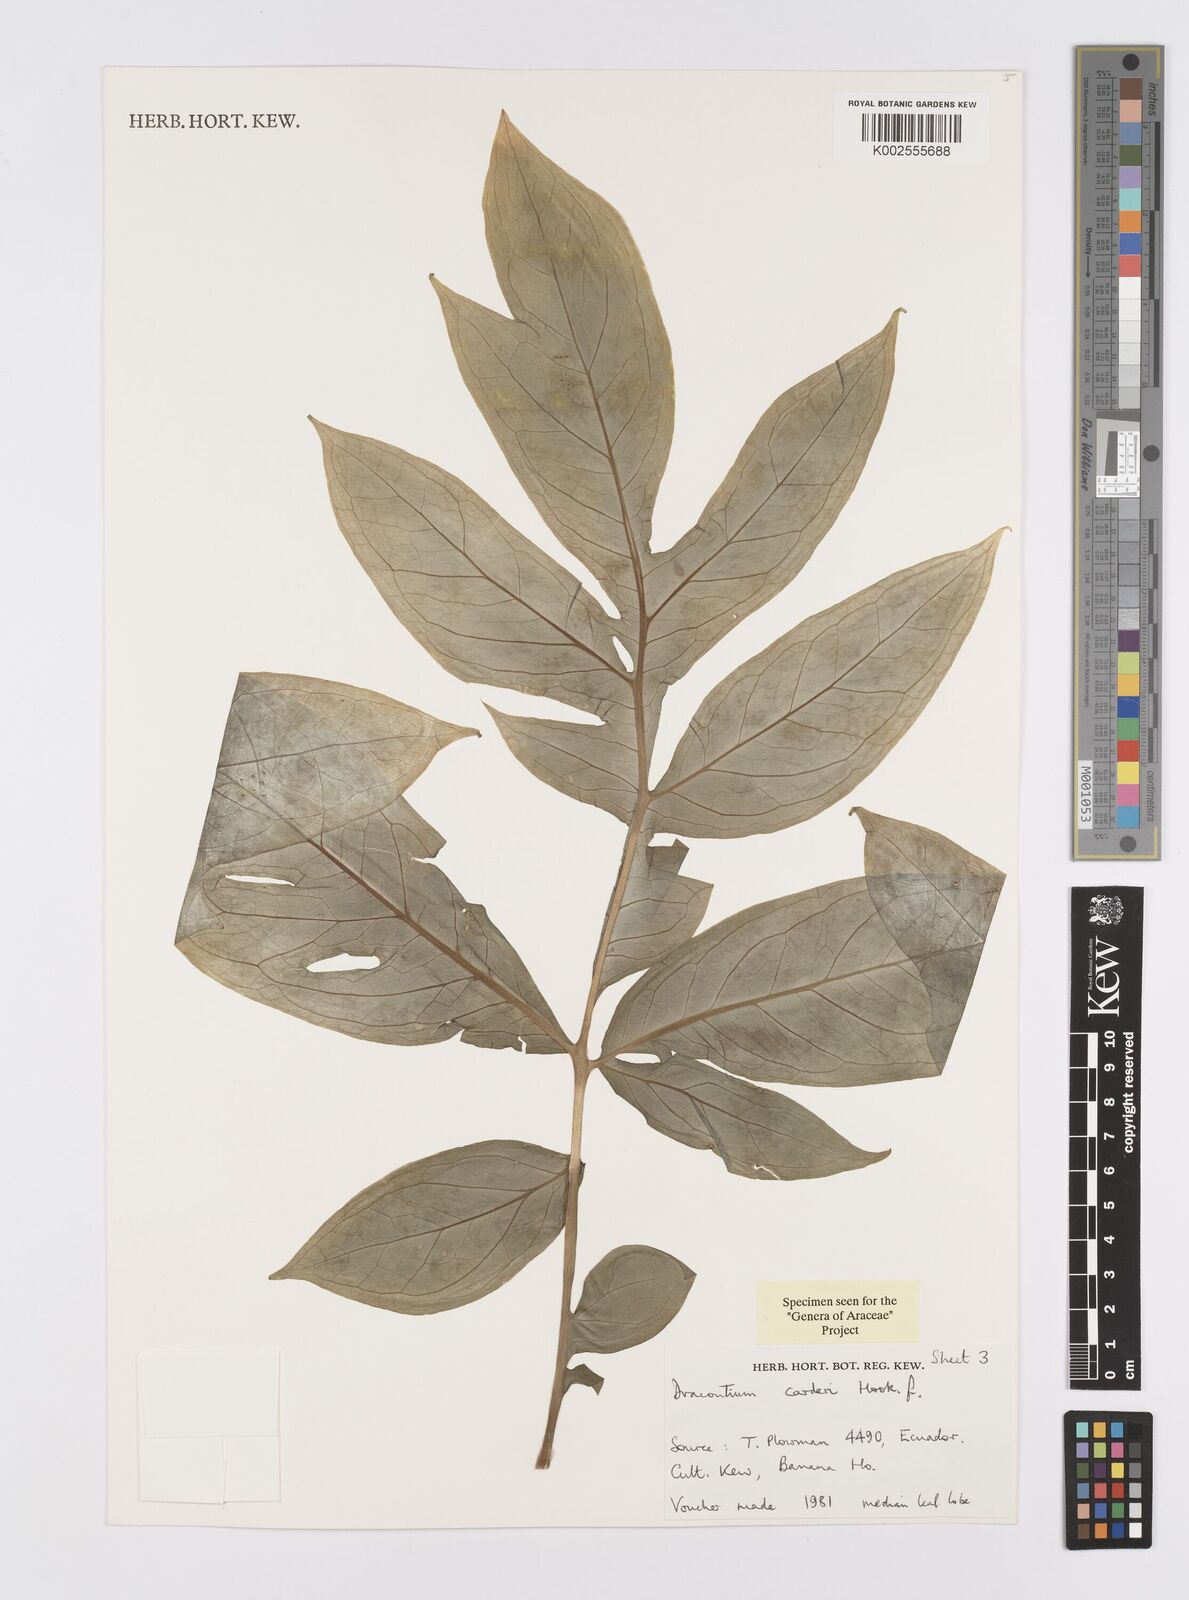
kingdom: Plantae
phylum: Tracheophyta
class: Liliopsida
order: Alismatales
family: Araceae
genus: Dracontium
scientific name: Dracontium spruceanum
